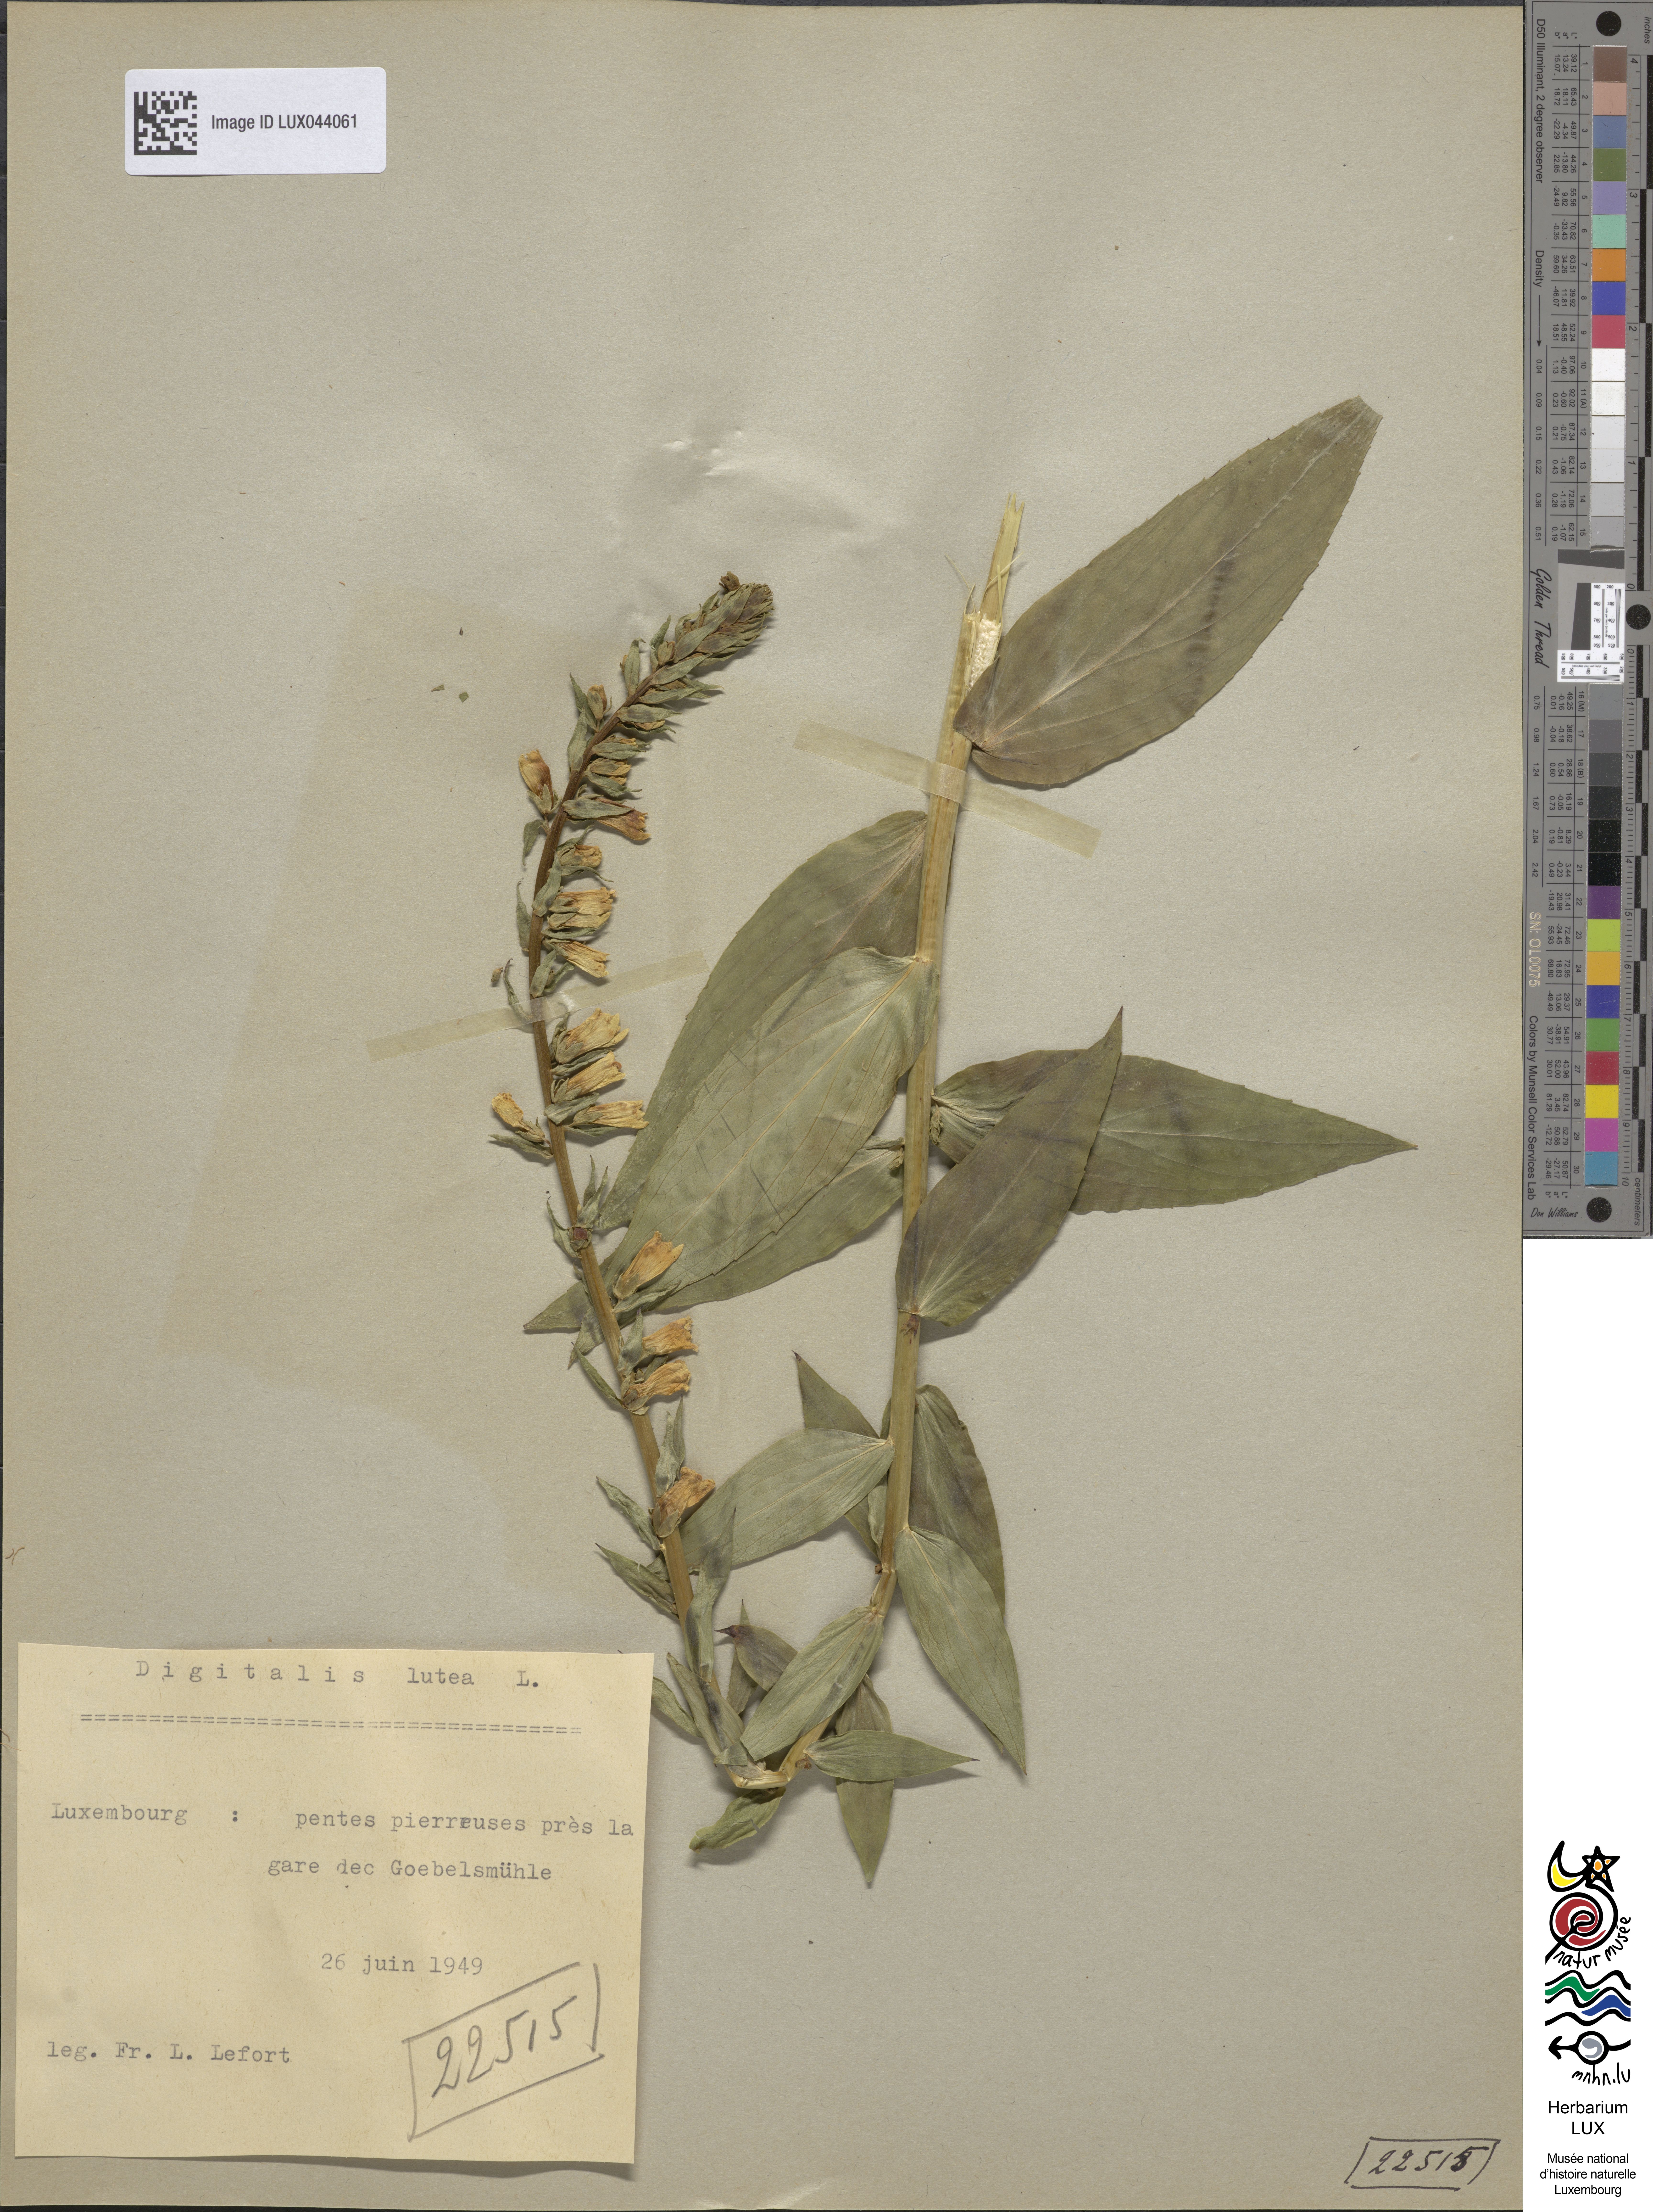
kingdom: Plantae
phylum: Tracheophyta
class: Magnoliopsida
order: Lamiales
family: Plantaginaceae
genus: Digitalis
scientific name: Digitalis lutea
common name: Straw foxglove
